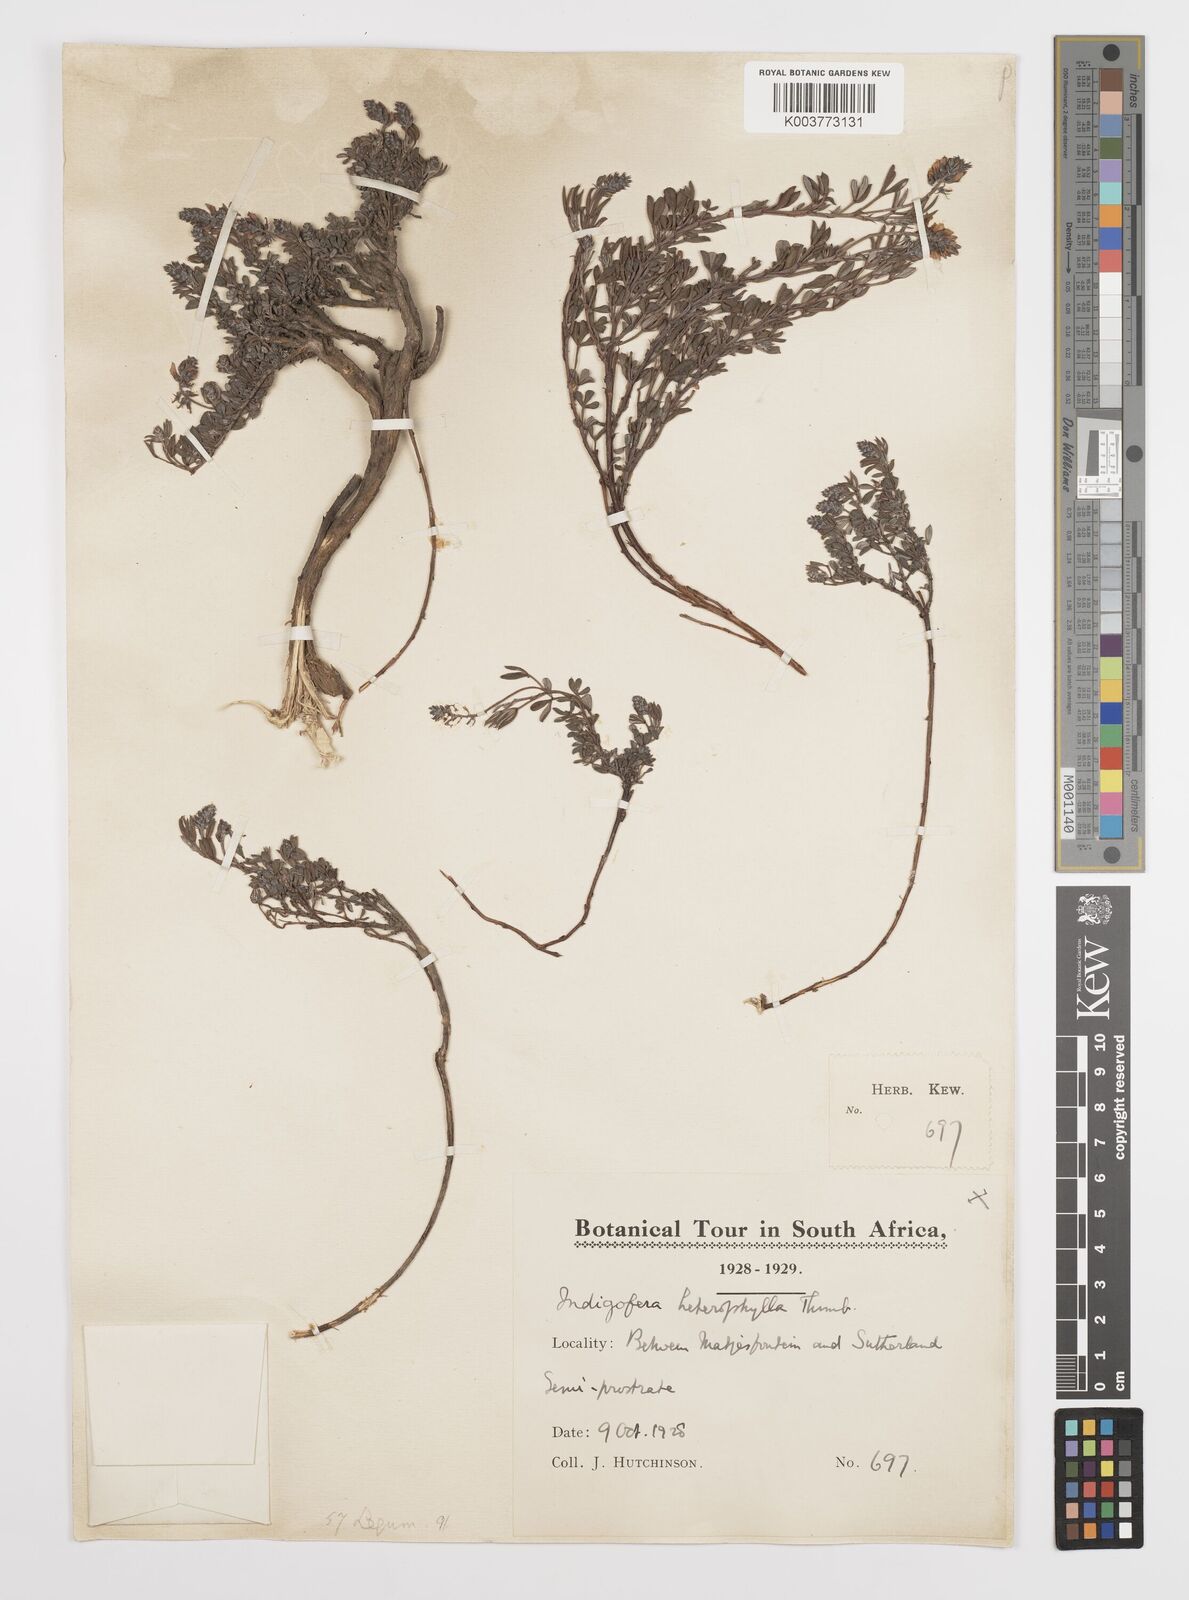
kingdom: Plantae
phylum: Tracheophyta
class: Magnoliopsida
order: Fabales
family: Fabaceae
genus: Indigofera
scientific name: Indigofera
